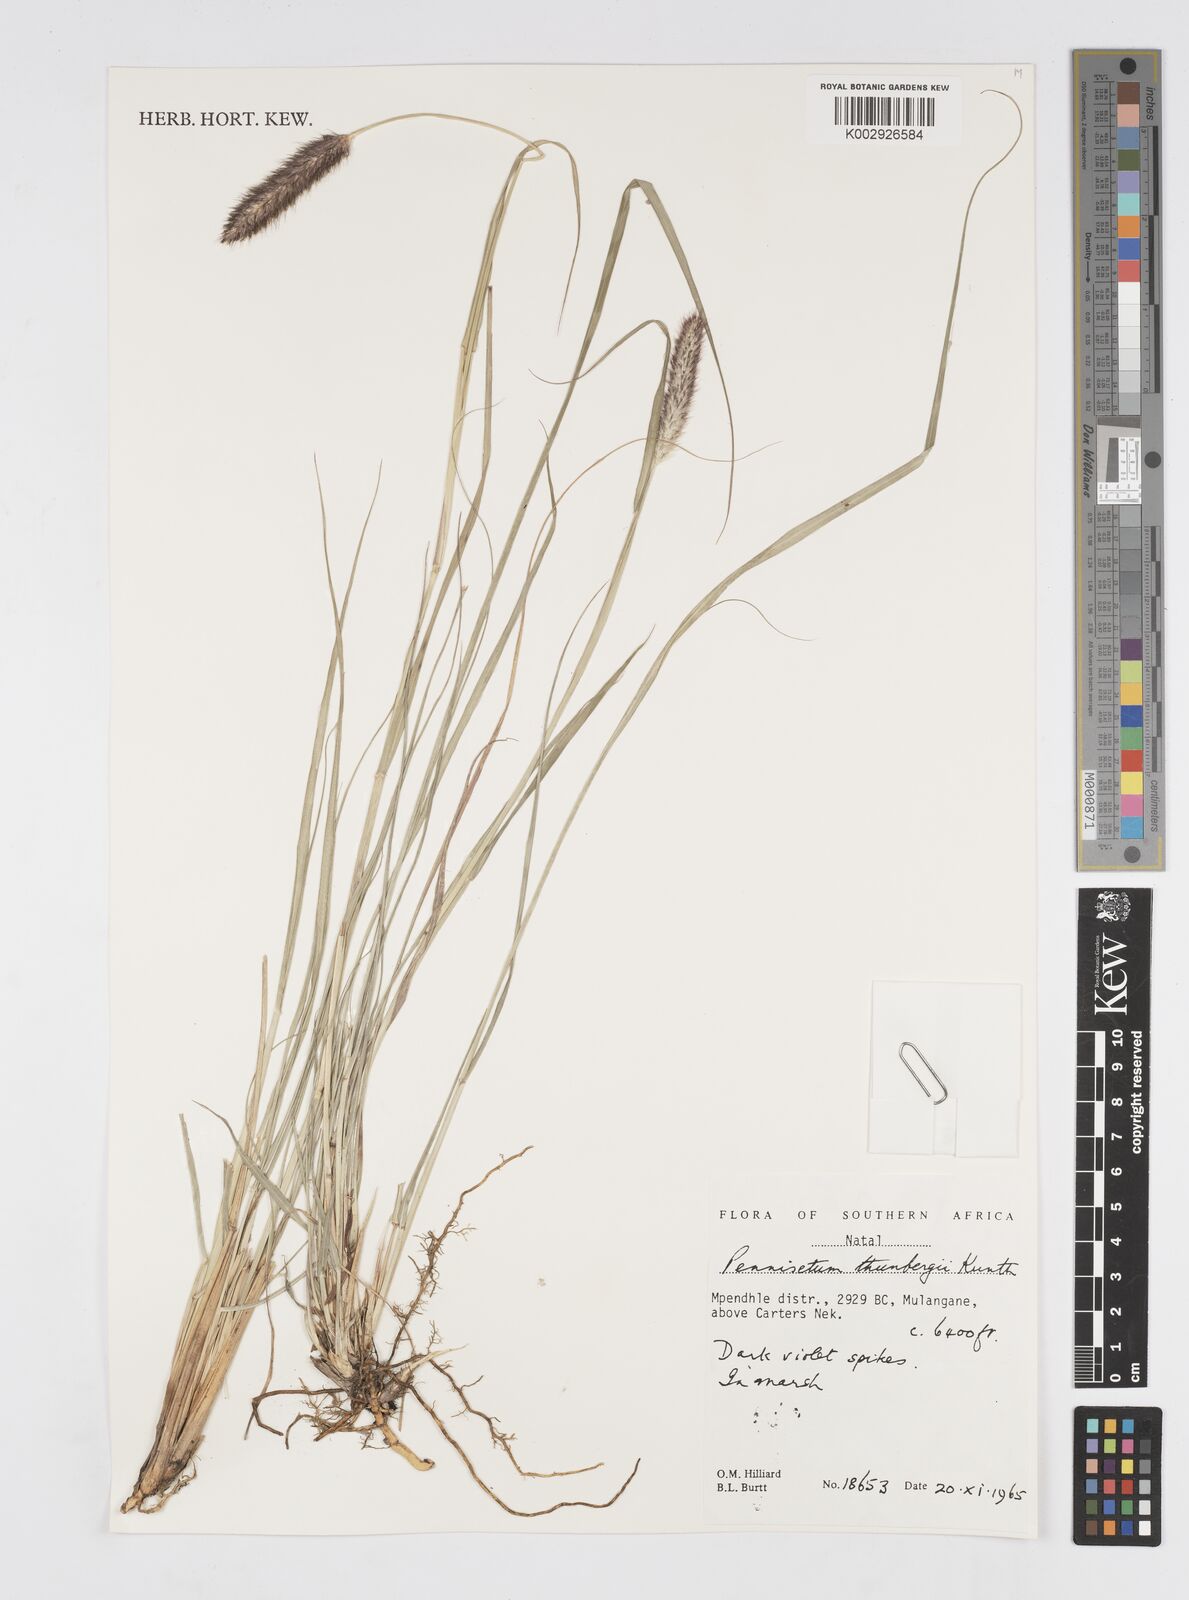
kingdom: Plantae
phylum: Tracheophyta
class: Liliopsida
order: Poales
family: Poaceae
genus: Cenchrus
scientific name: Cenchrus geniculatus
